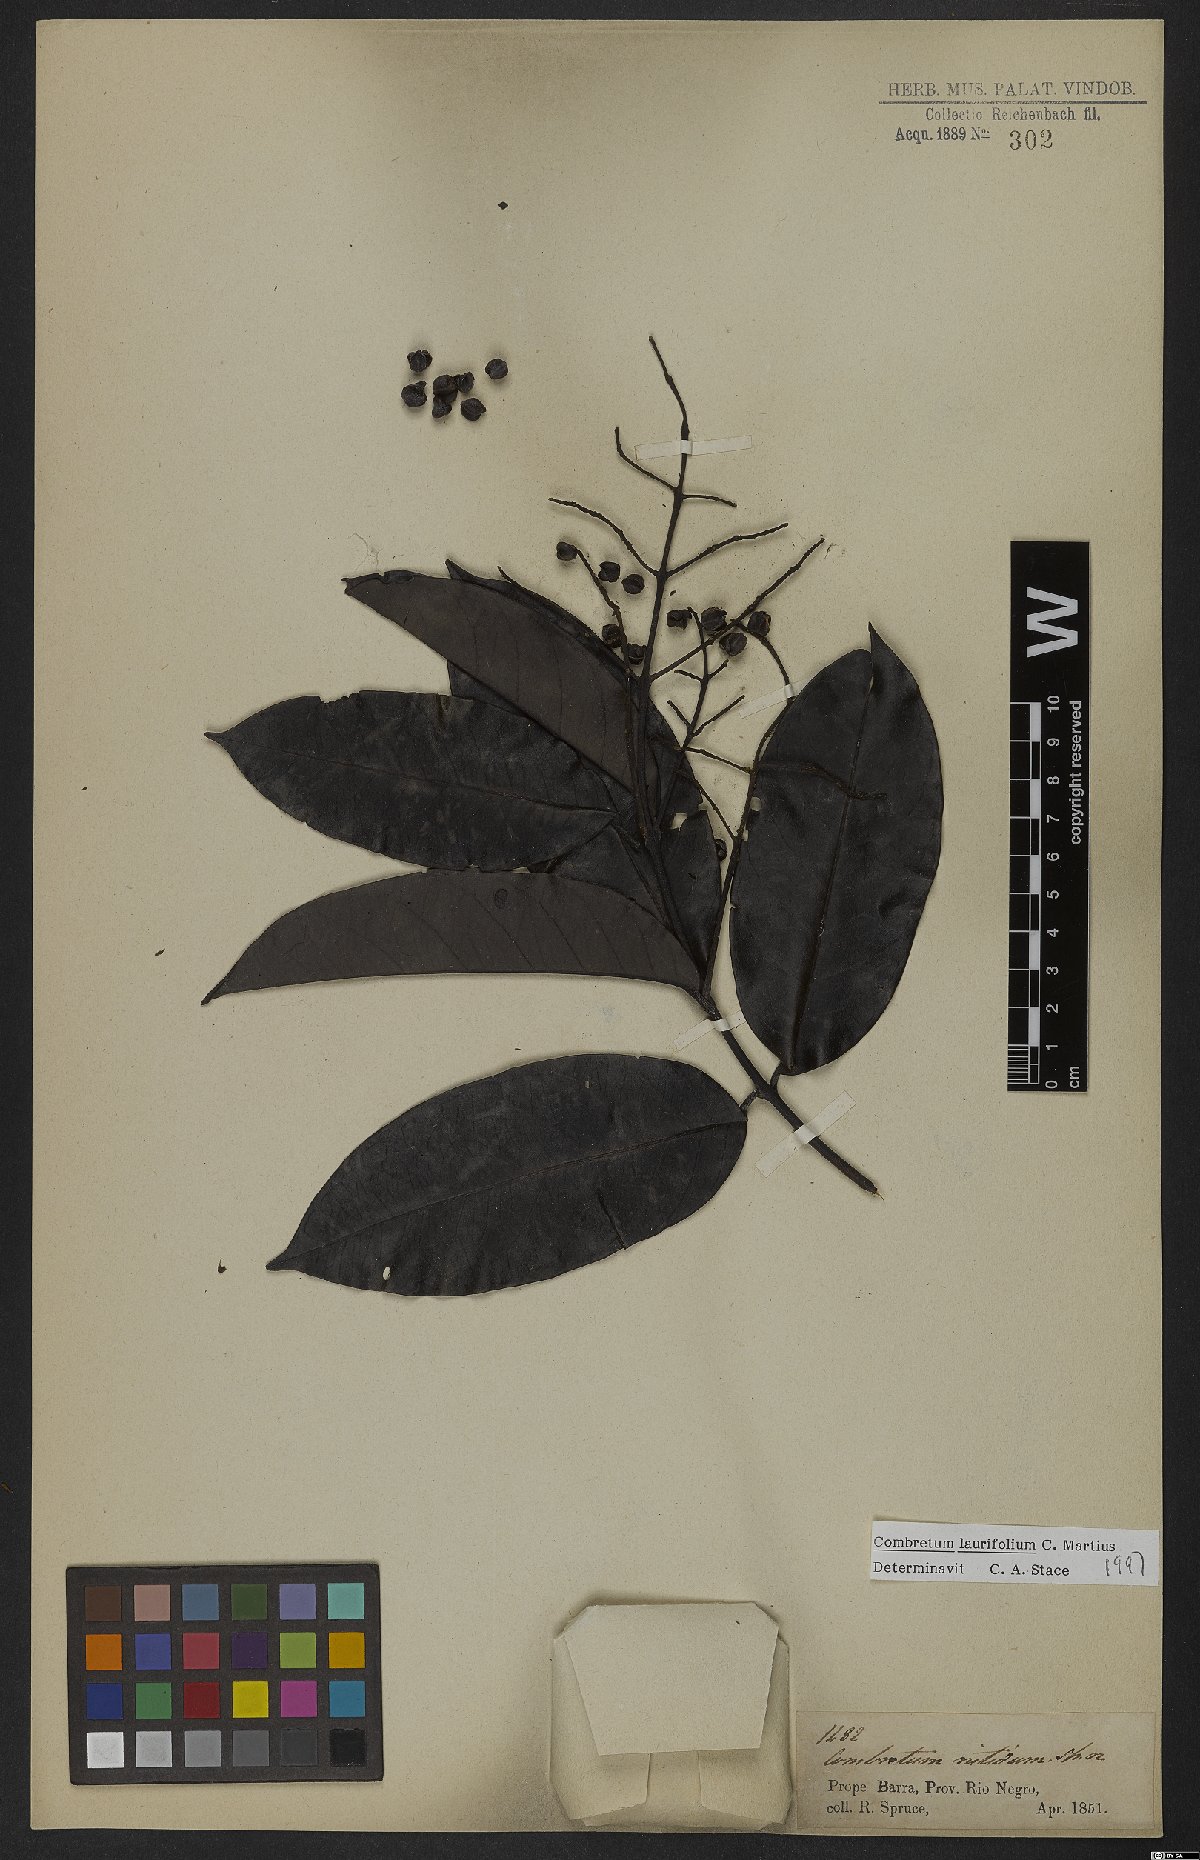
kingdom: Plantae
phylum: Tracheophyta
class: Magnoliopsida
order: Myrtales
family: Combretaceae
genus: Combretum
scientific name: Combretum coriifolium
